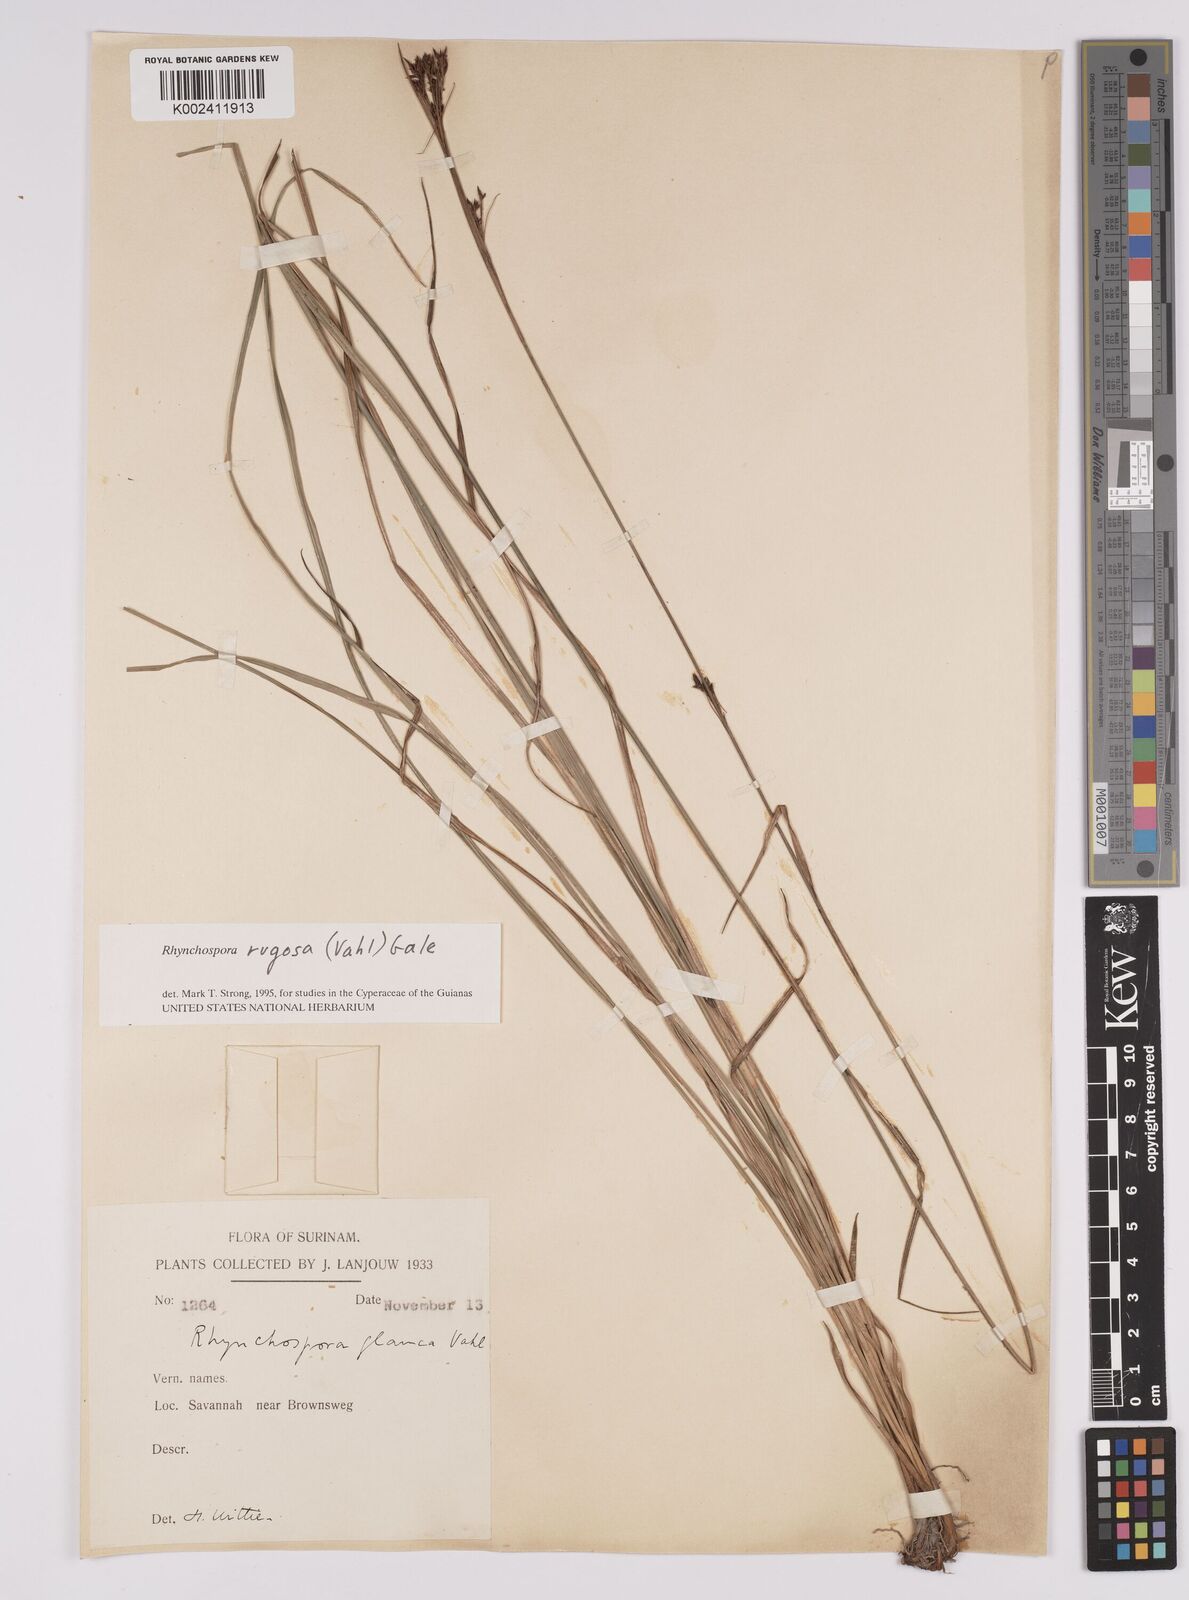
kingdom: Plantae
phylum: Tracheophyta
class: Liliopsida
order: Poales
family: Cyperaceae
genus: Rhynchospora
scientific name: Rhynchospora rugosa
